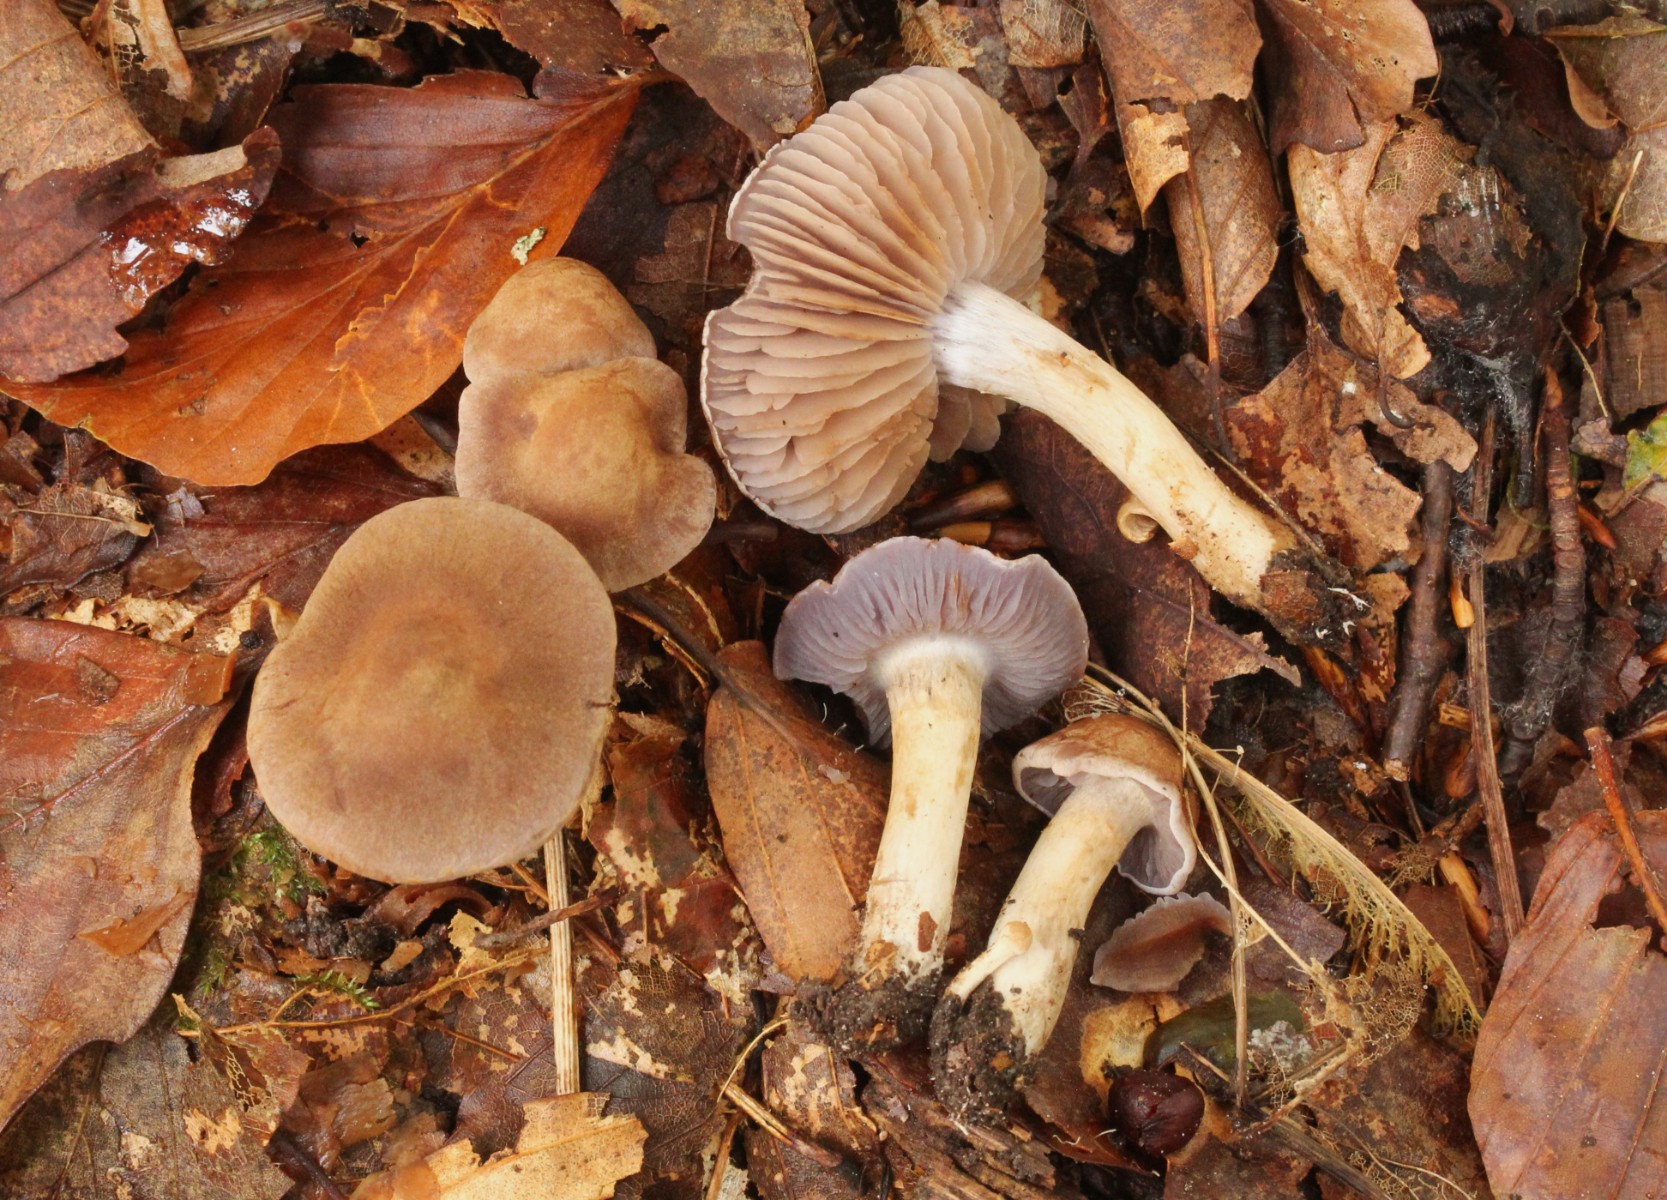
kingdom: Fungi
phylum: Basidiomycota
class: Agaricomycetes
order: Agaricales
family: Cortinariaceae
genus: Cortinarius
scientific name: Cortinarius
